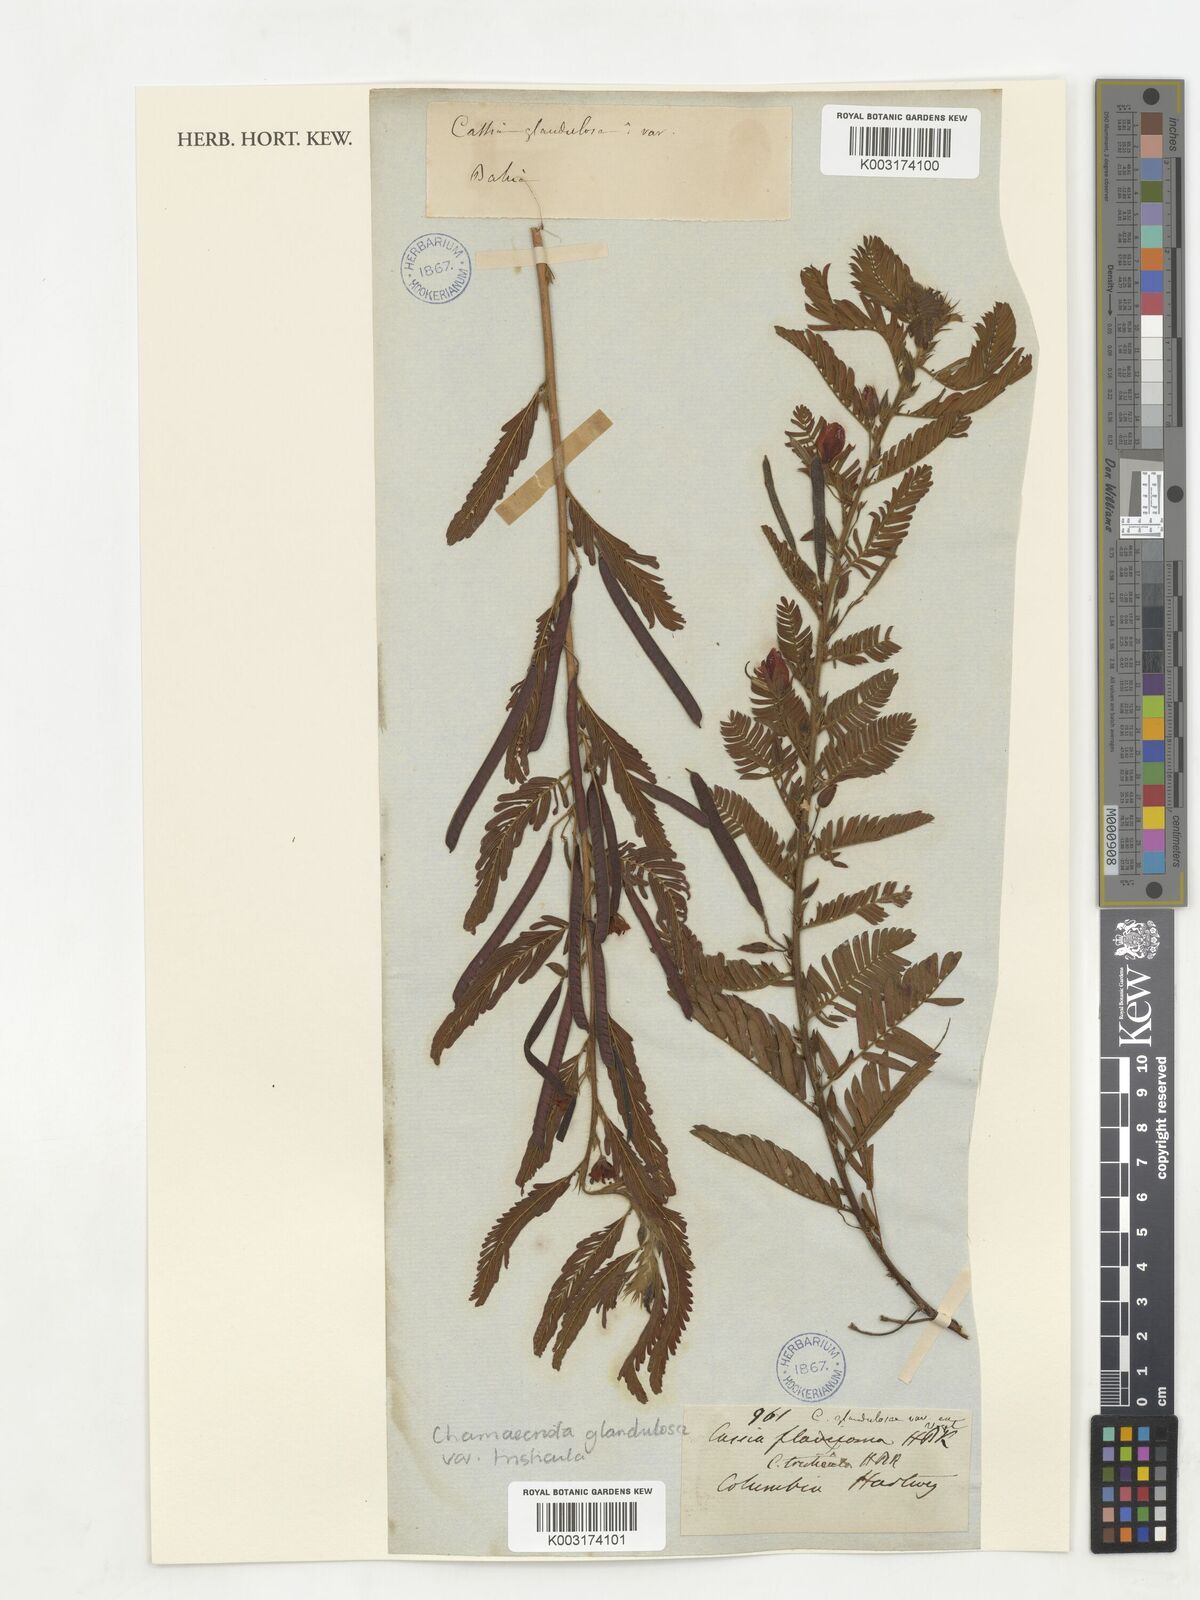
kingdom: Plantae
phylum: Tracheophyta
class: Magnoliopsida
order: Fabales
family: Fabaceae
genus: Chamaecrista
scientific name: Chamaecrista glandulosa
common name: Wild peas
